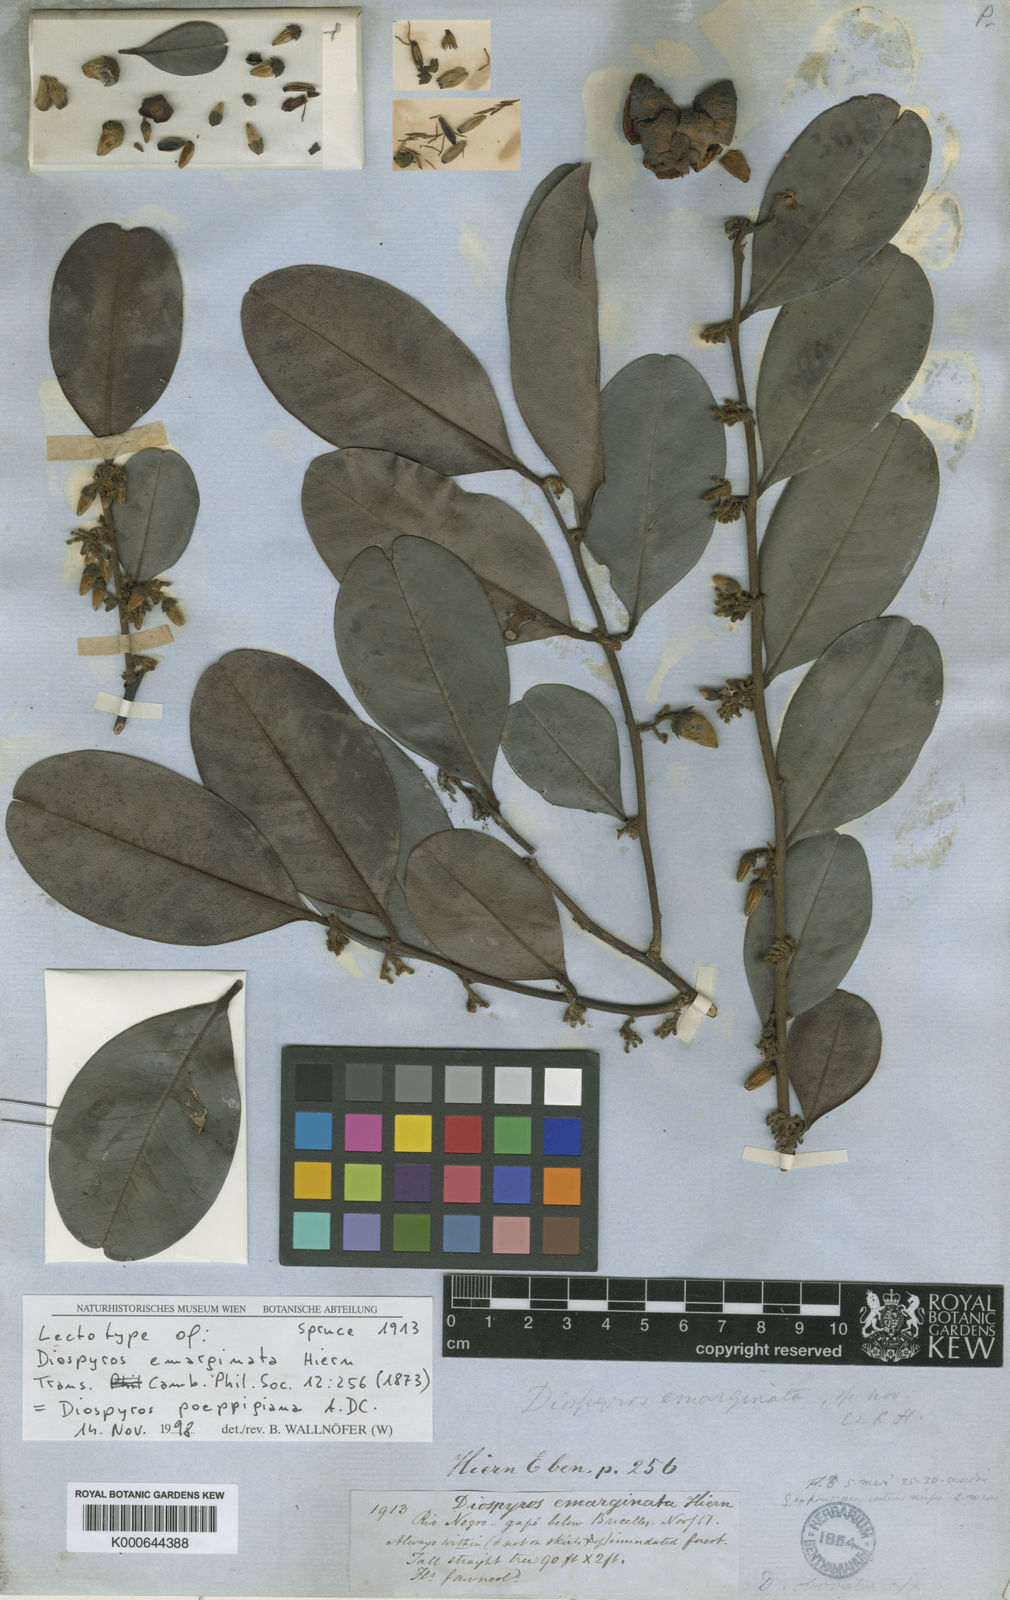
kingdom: Plantae
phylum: Tracheophyta
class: Magnoliopsida
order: Ericales
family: Ebenaceae
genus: Diospyros
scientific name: Diospyros poeppigiana
